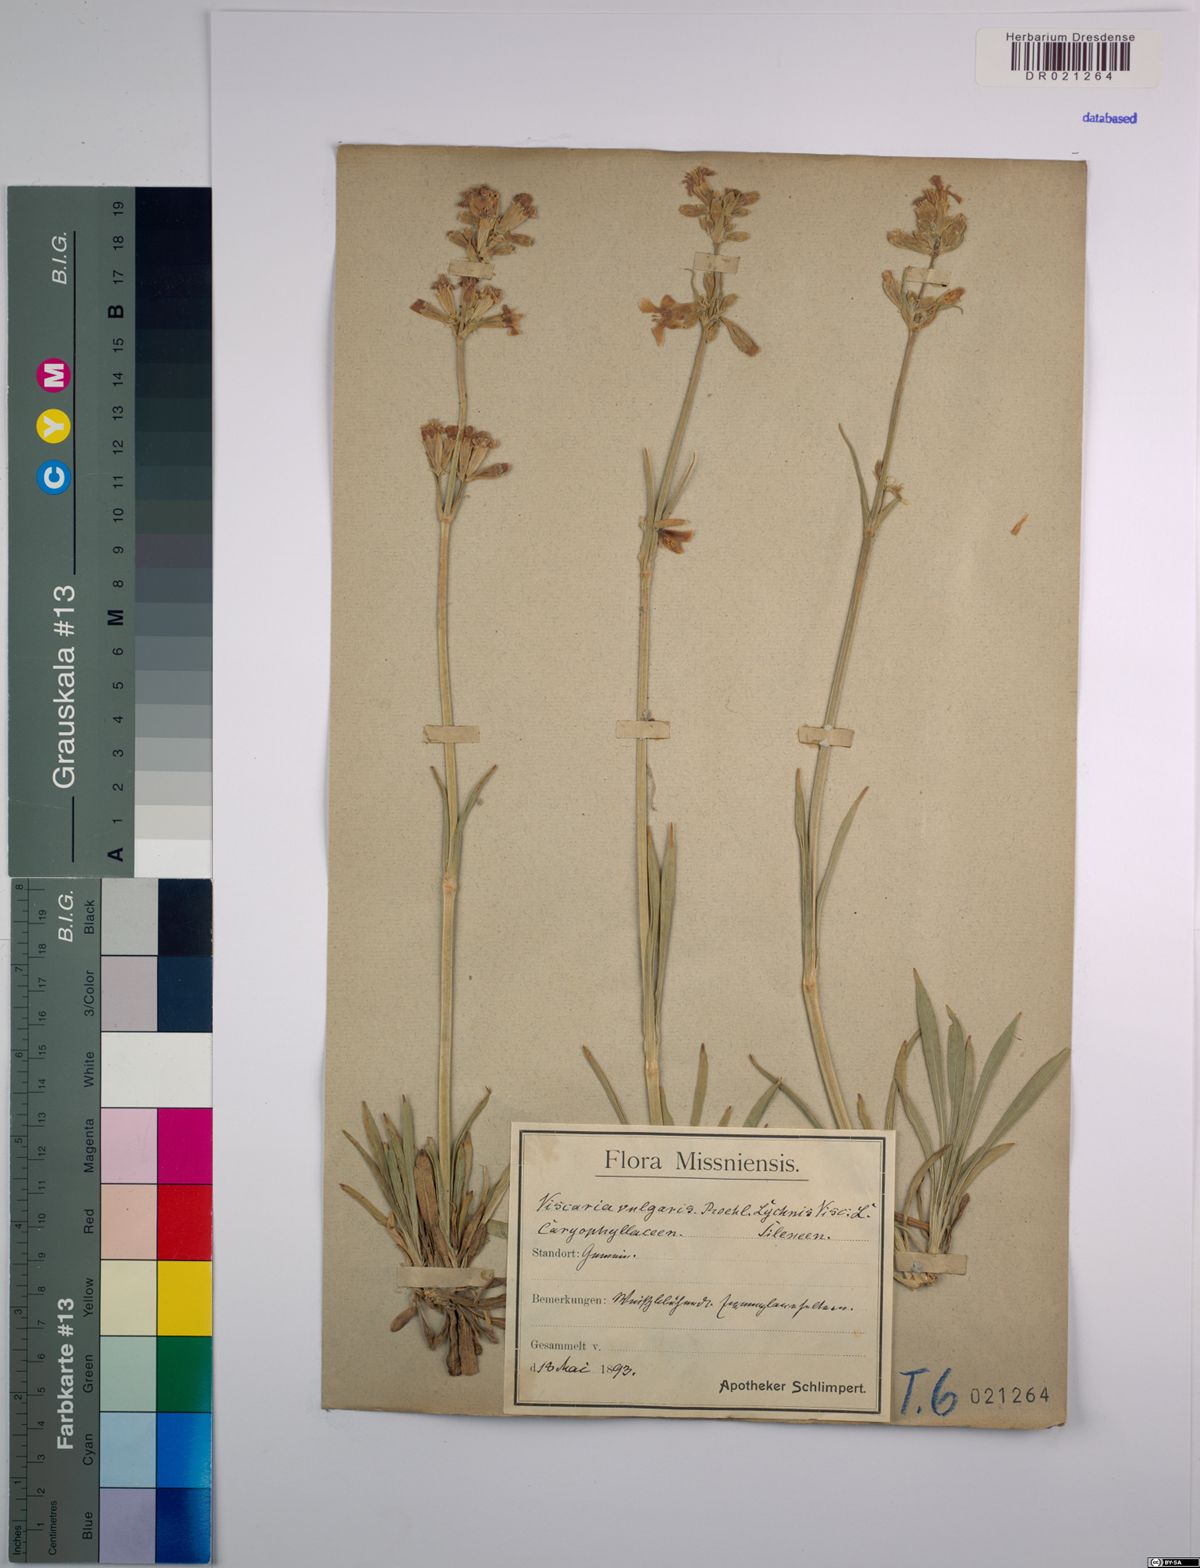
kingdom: Plantae
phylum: Tracheophyta
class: Magnoliopsida
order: Caryophyllales
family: Caryophyllaceae
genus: Viscaria
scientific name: Viscaria vulgaris
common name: Clammy campion
